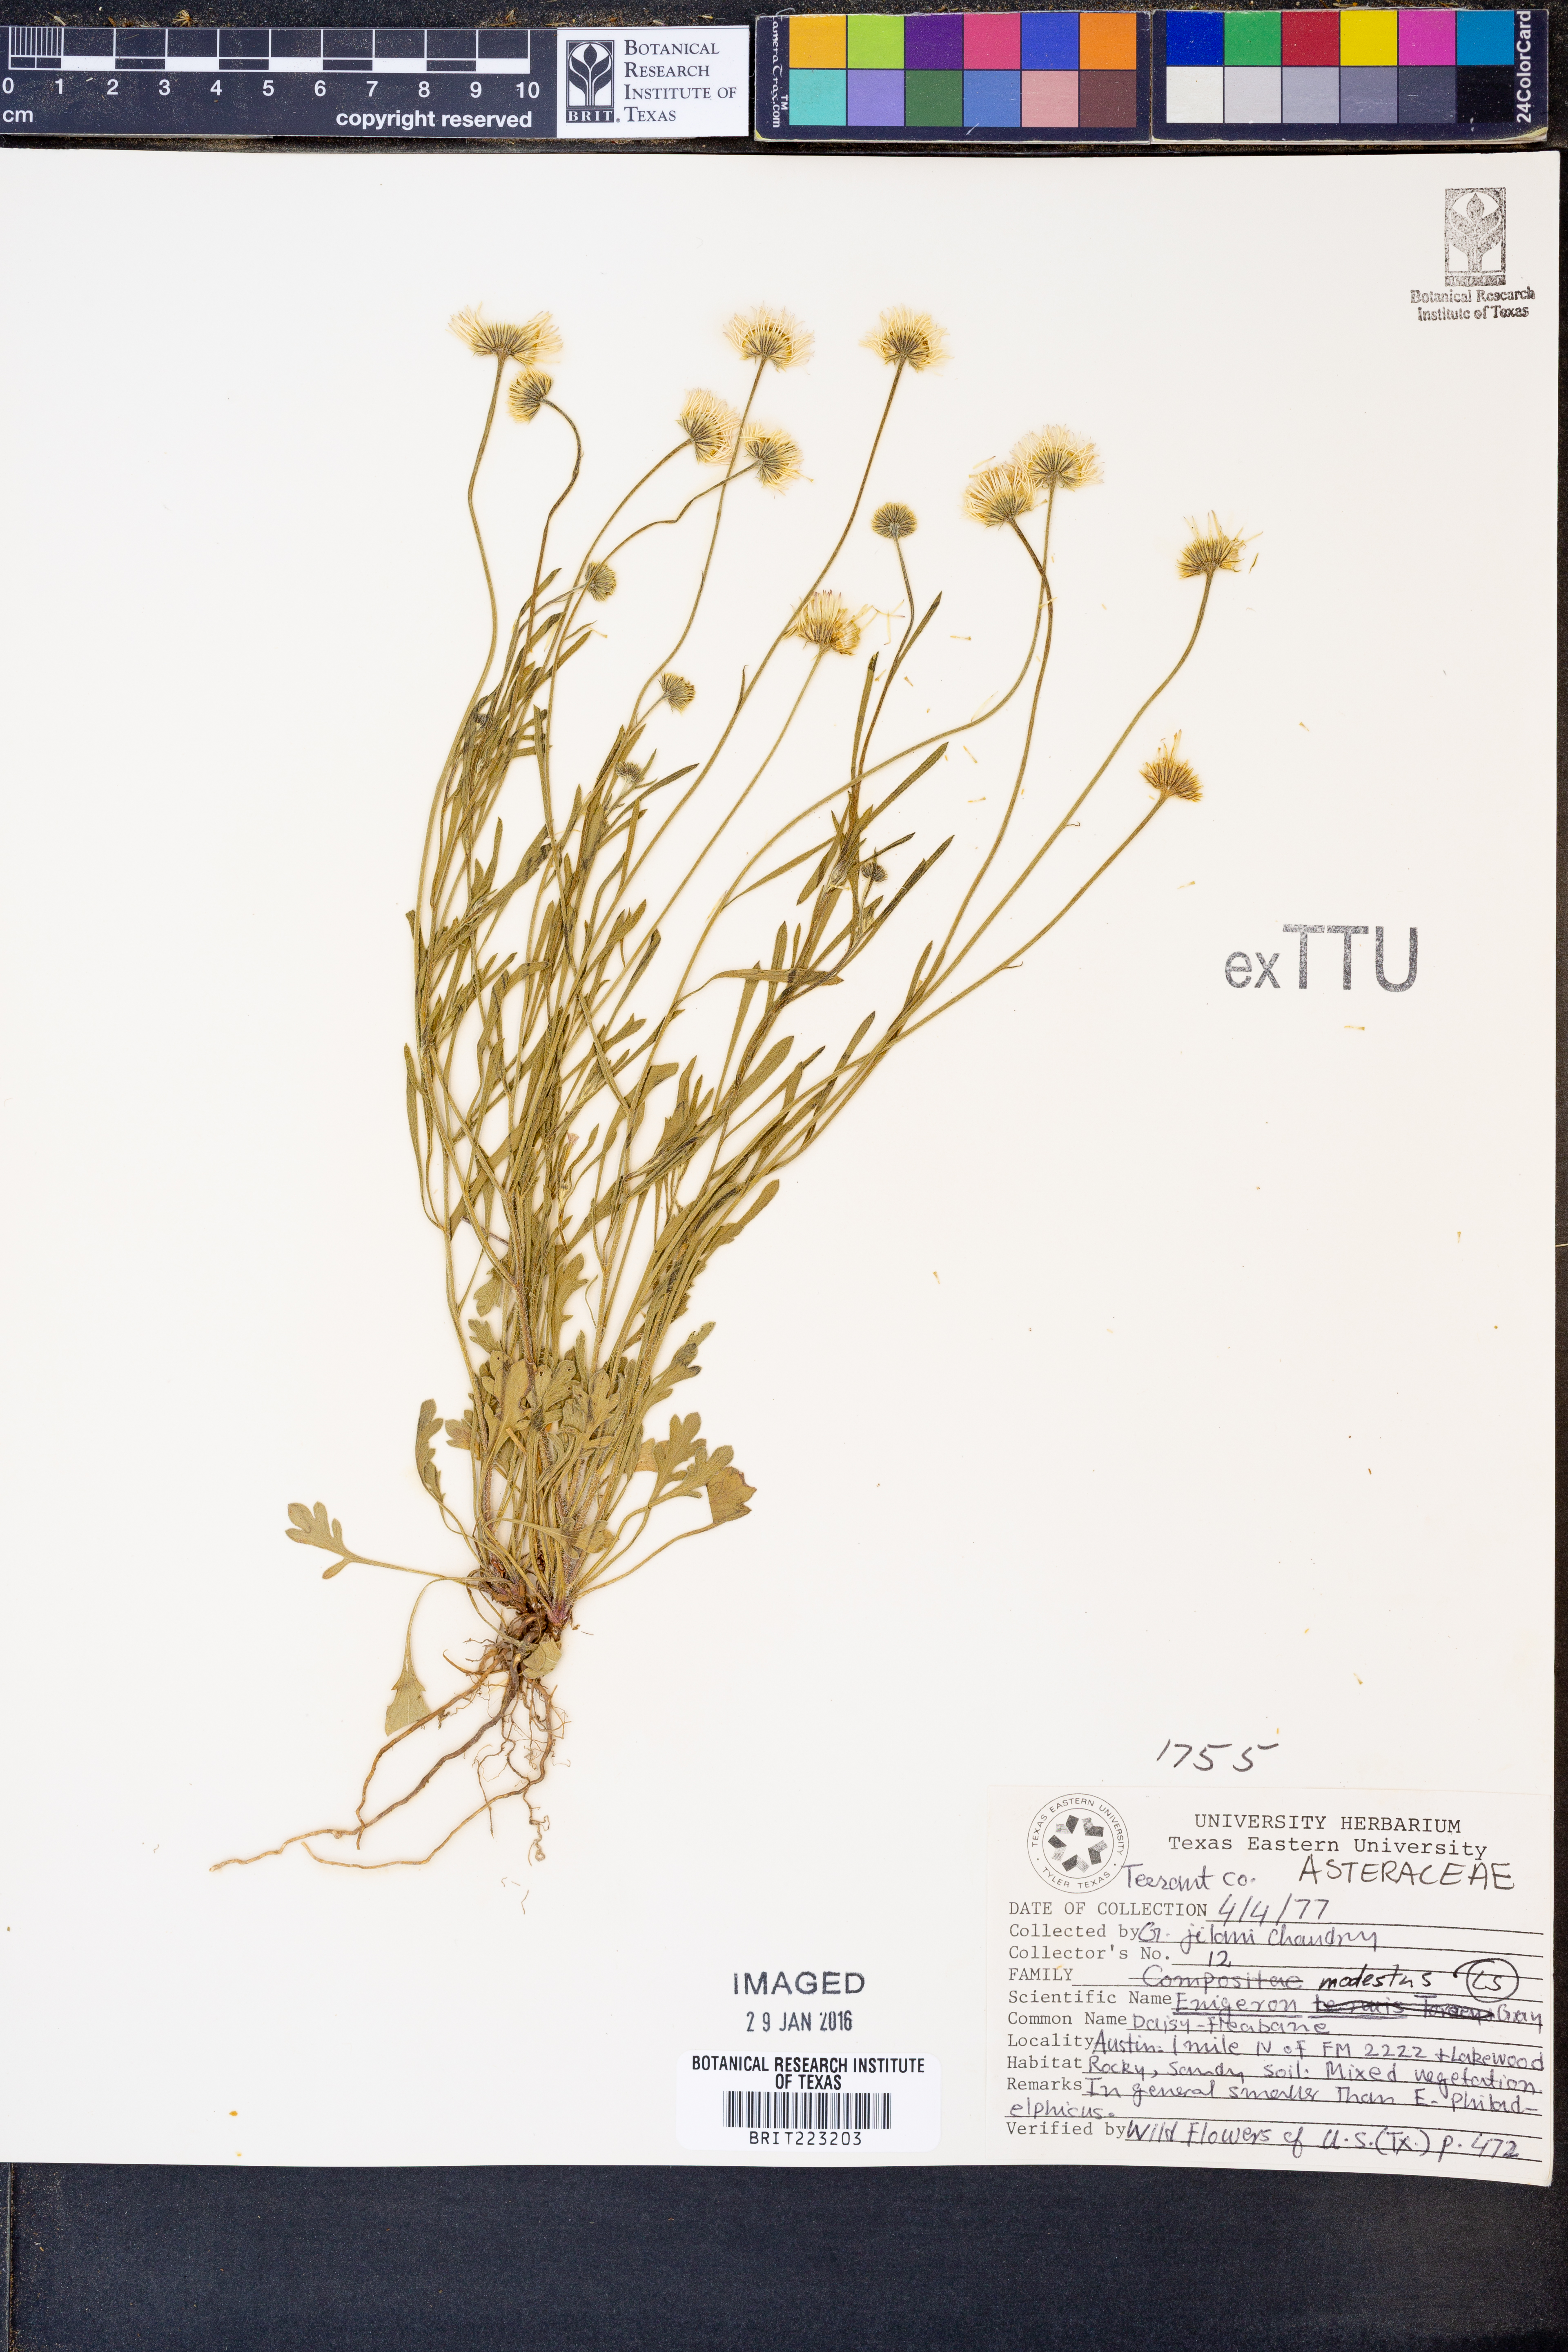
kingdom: Plantae
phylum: Tracheophyta
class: Magnoliopsida
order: Asterales
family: Asteraceae
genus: Erigeron
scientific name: Erigeron modestus
